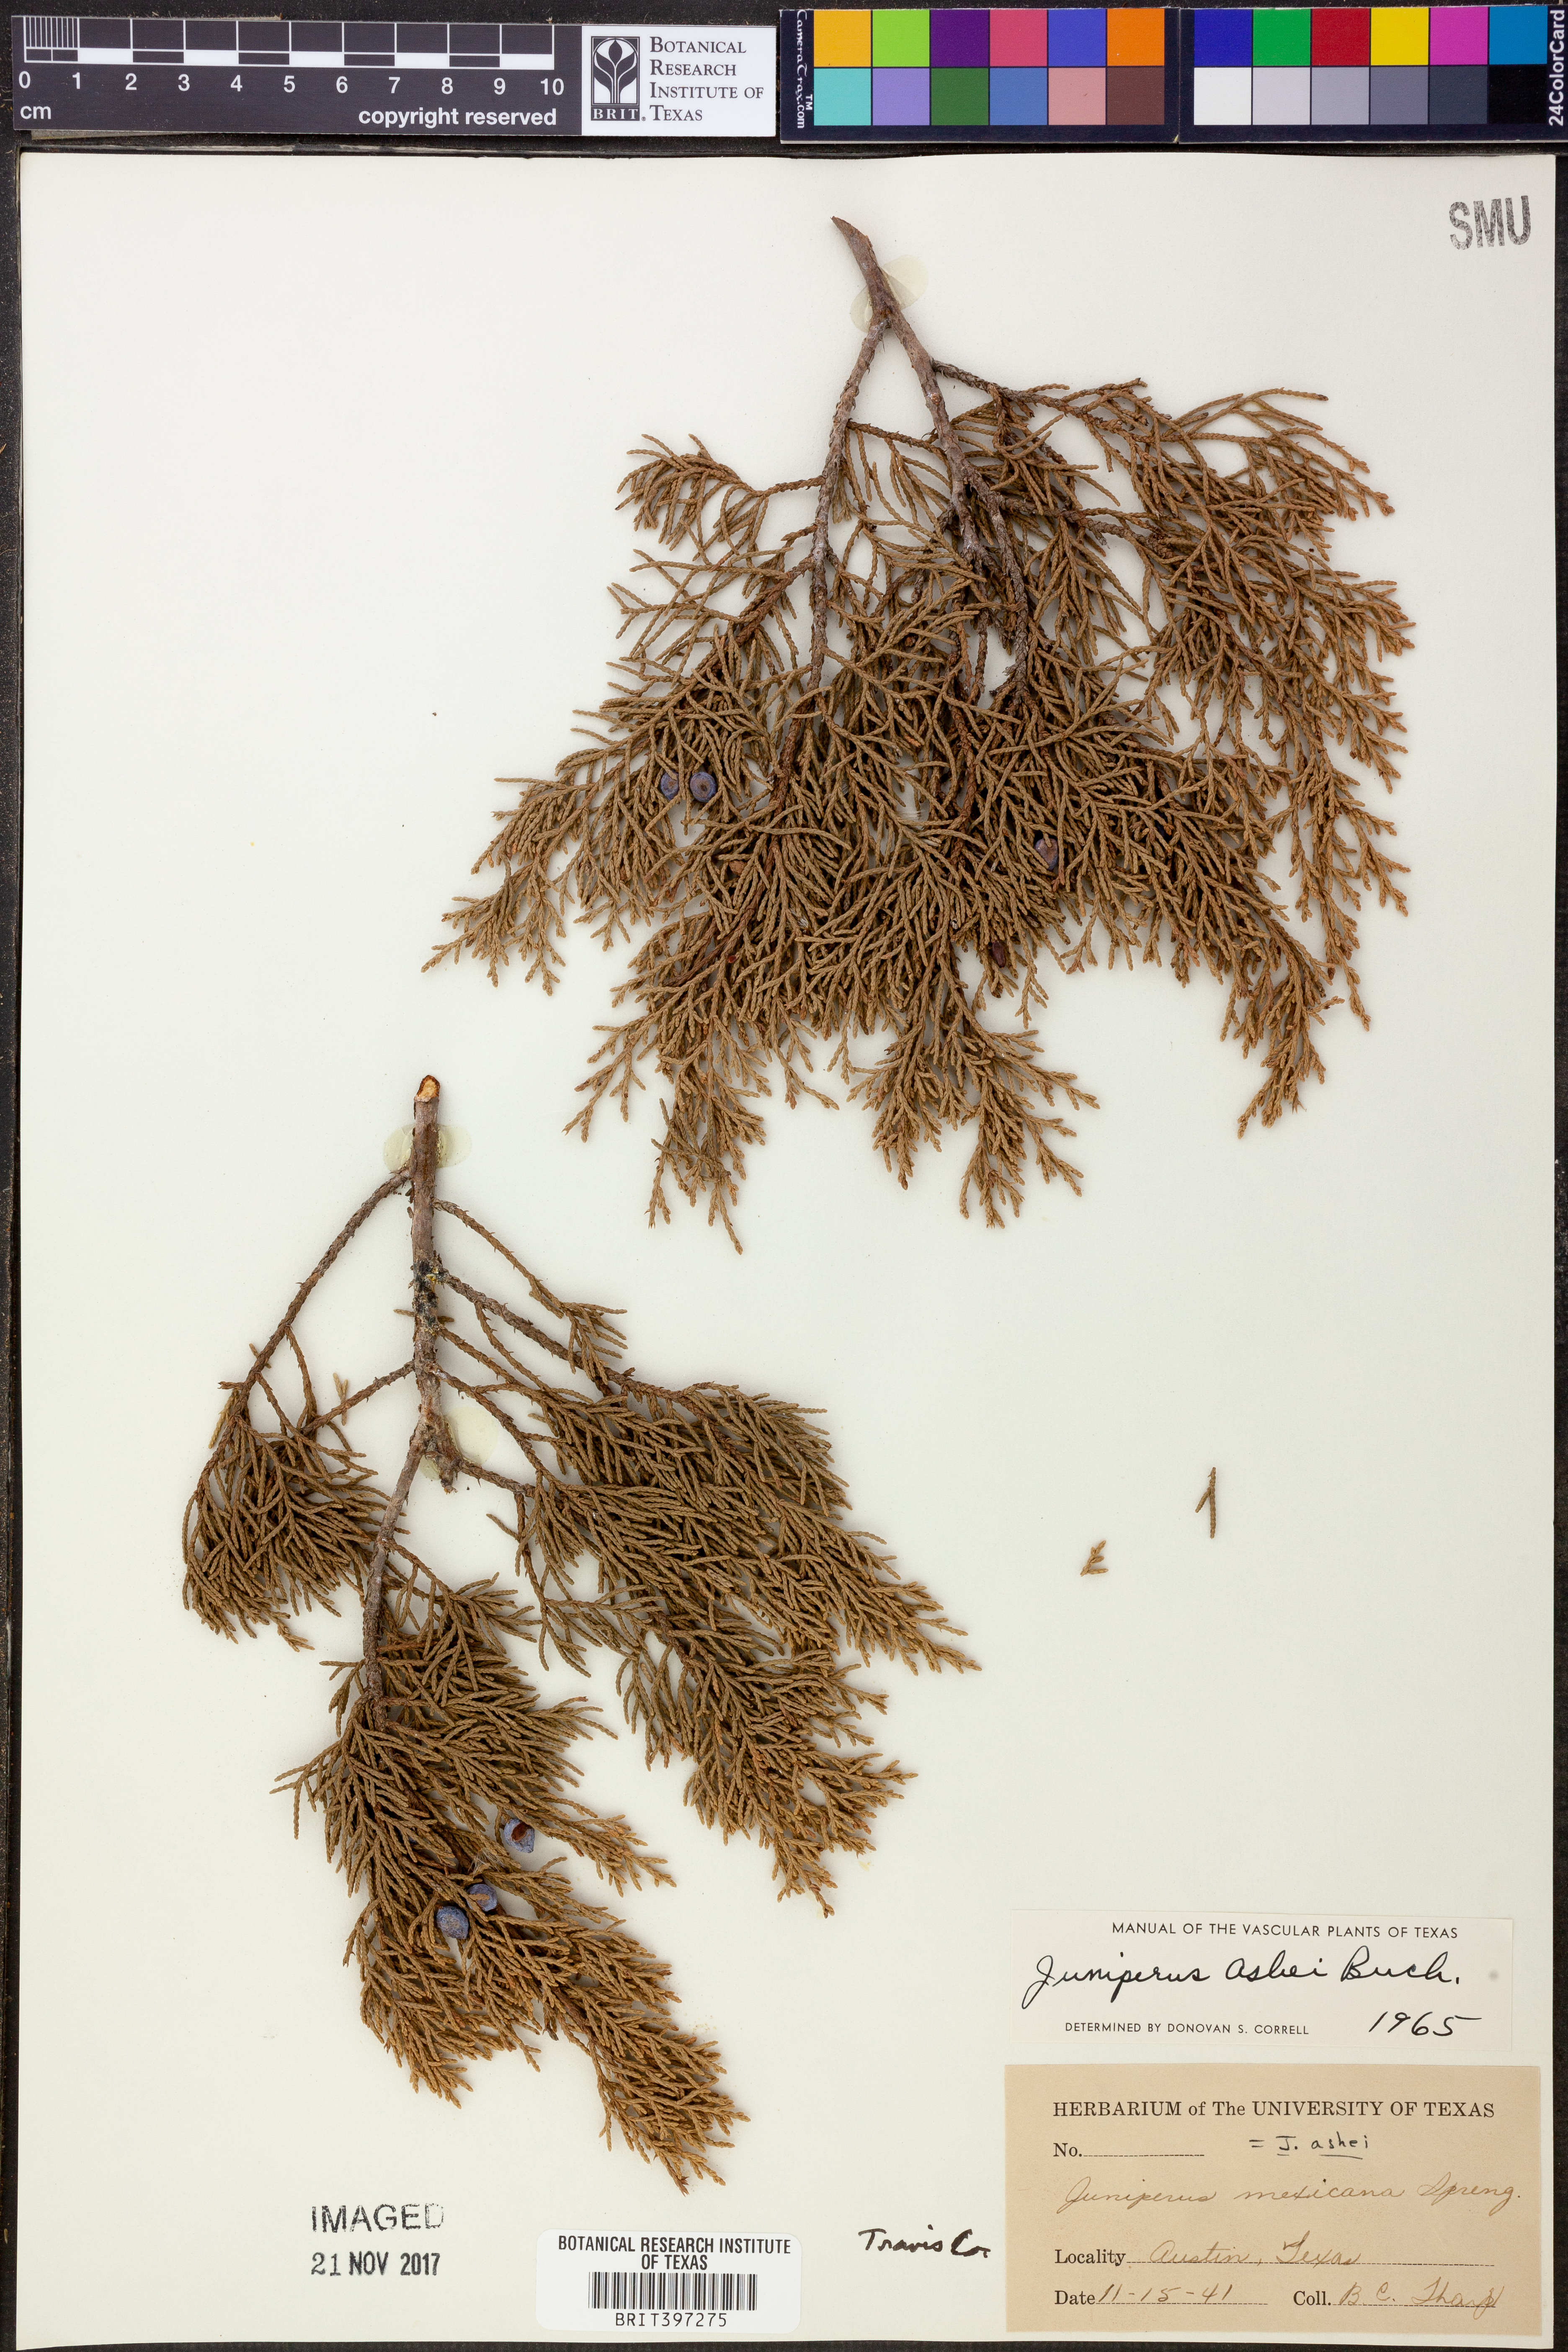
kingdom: Plantae
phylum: Tracheophyta
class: Pinopsida
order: Pinales
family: Cupressaceae
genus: Juniperus
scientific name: Juniperus ashei
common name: Mexican juniper
